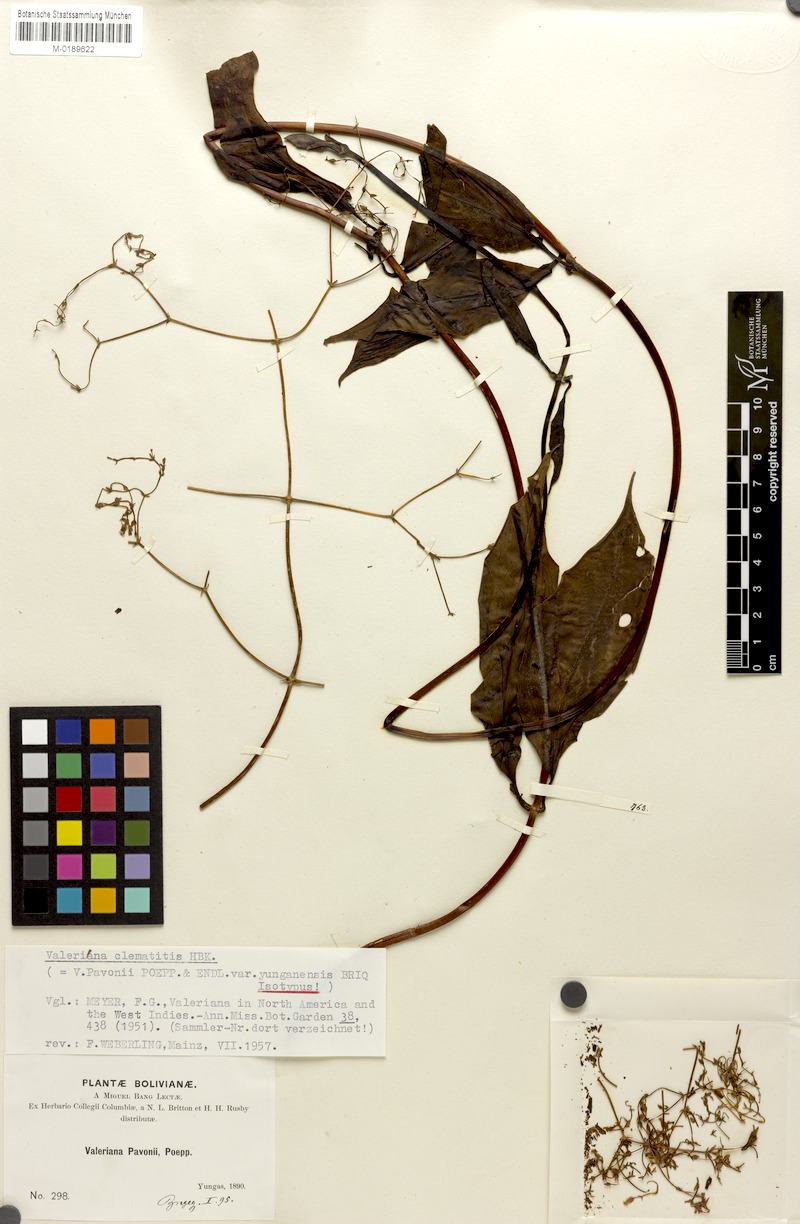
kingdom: Plantae
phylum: Tracheophyta
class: Magnoliopsida
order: Dipsacales
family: Caprifoliaceae
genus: Valeriana
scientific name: Valeriana clematitis
